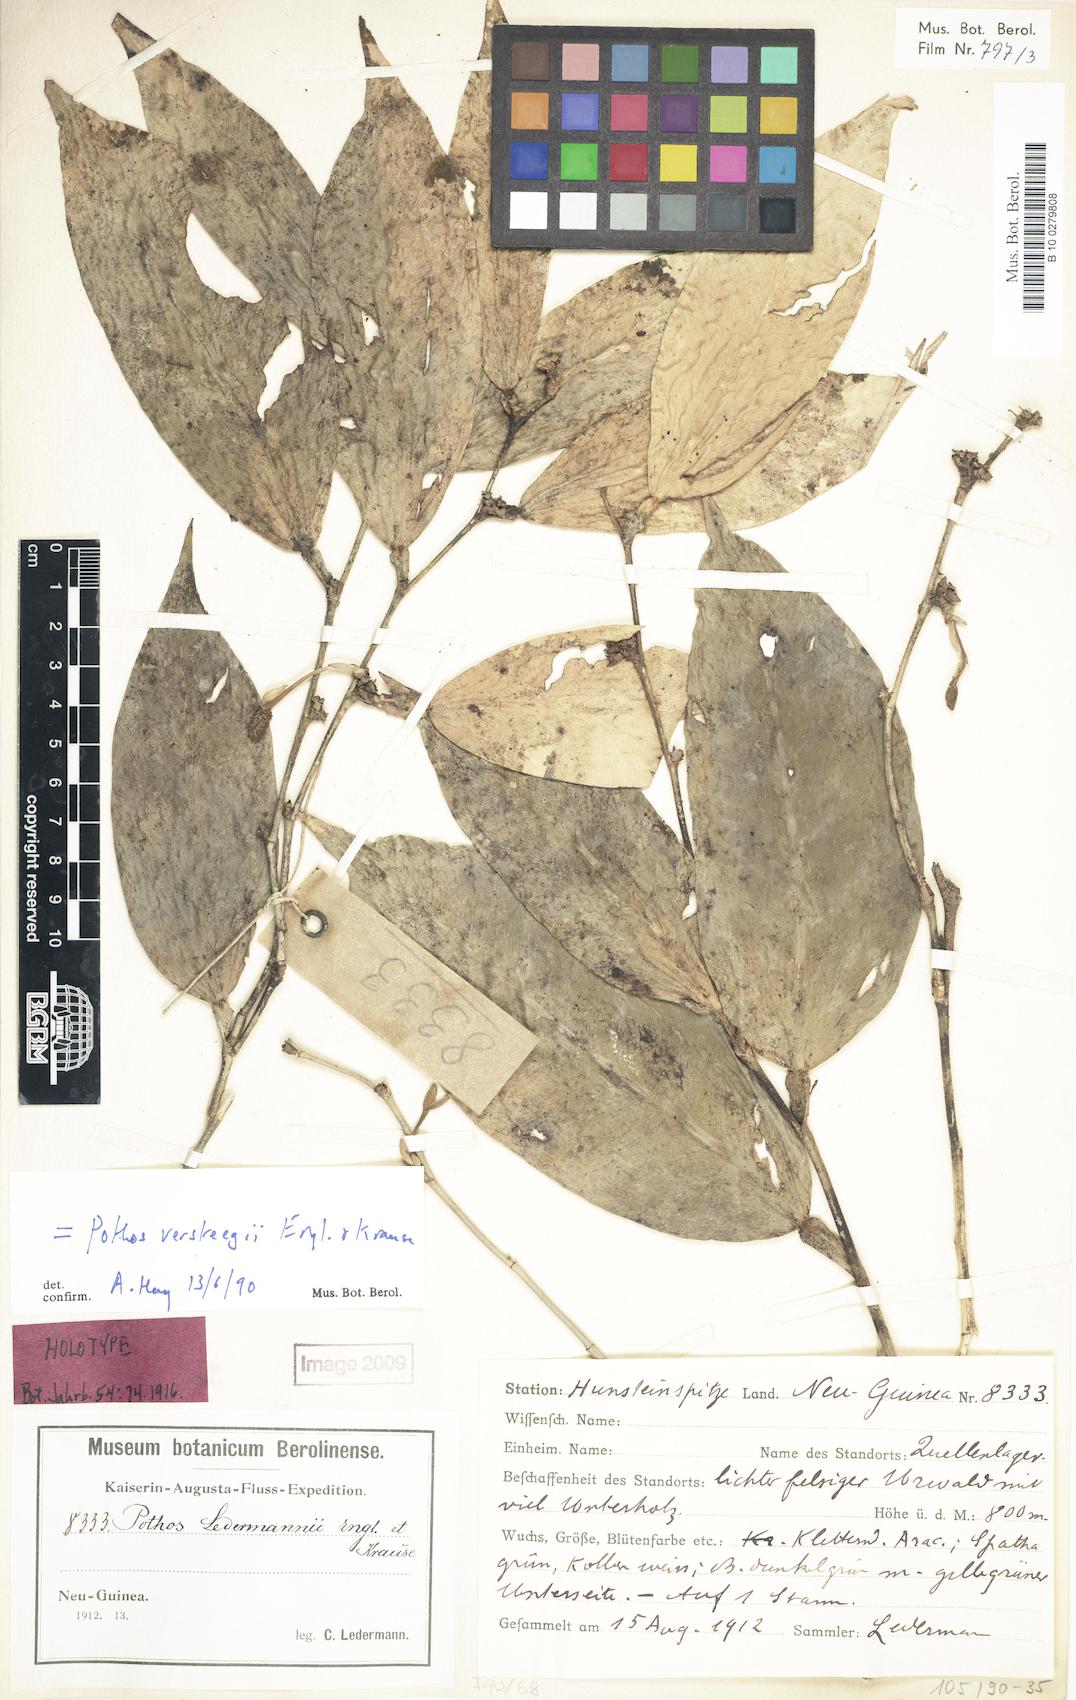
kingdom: Plantae
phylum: Tracheophyta
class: Liliopsida
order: Alismatales
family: Araceae
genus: Pothos
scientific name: Pothos versteegii
